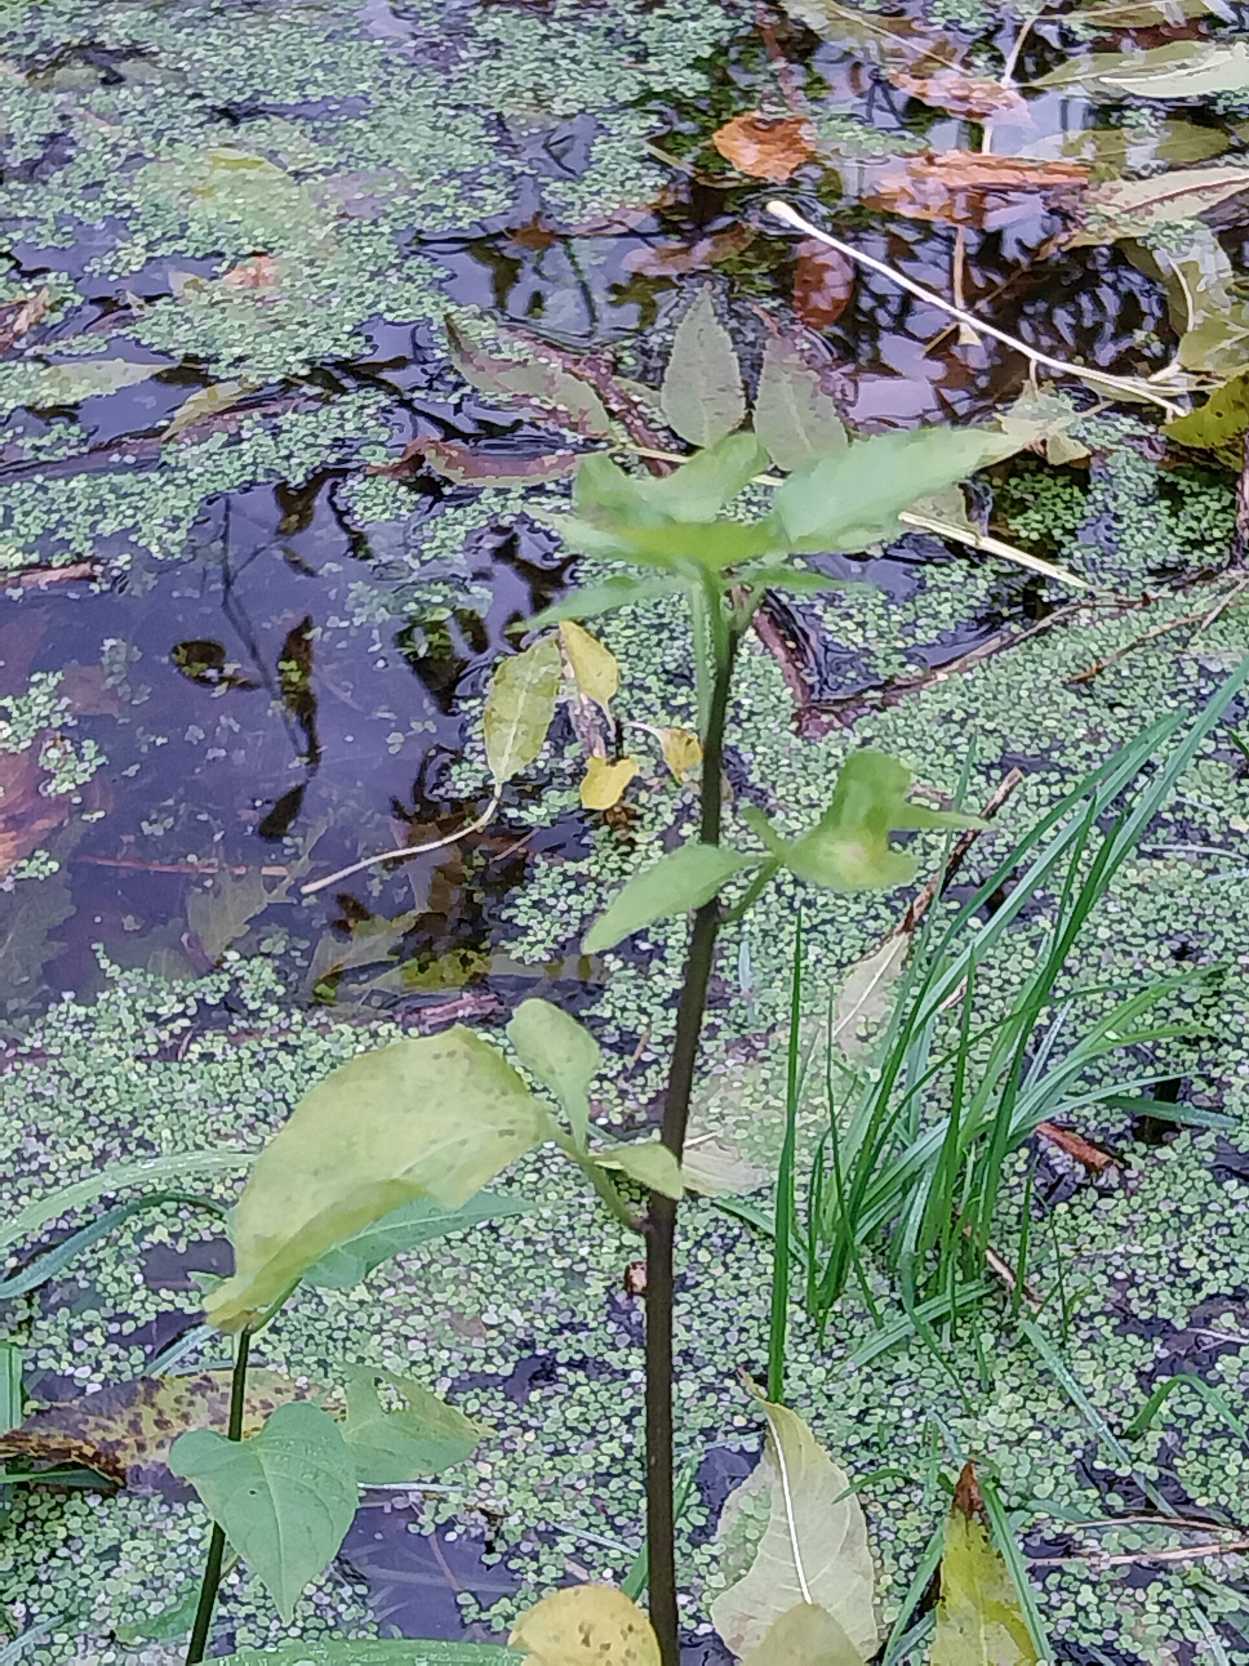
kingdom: Plantae
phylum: Tracheophyta
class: Magnoliopsida
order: Solanales
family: Solanaceae
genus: Solanum
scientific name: Solanum dulcamara
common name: Bittersød natskygge
